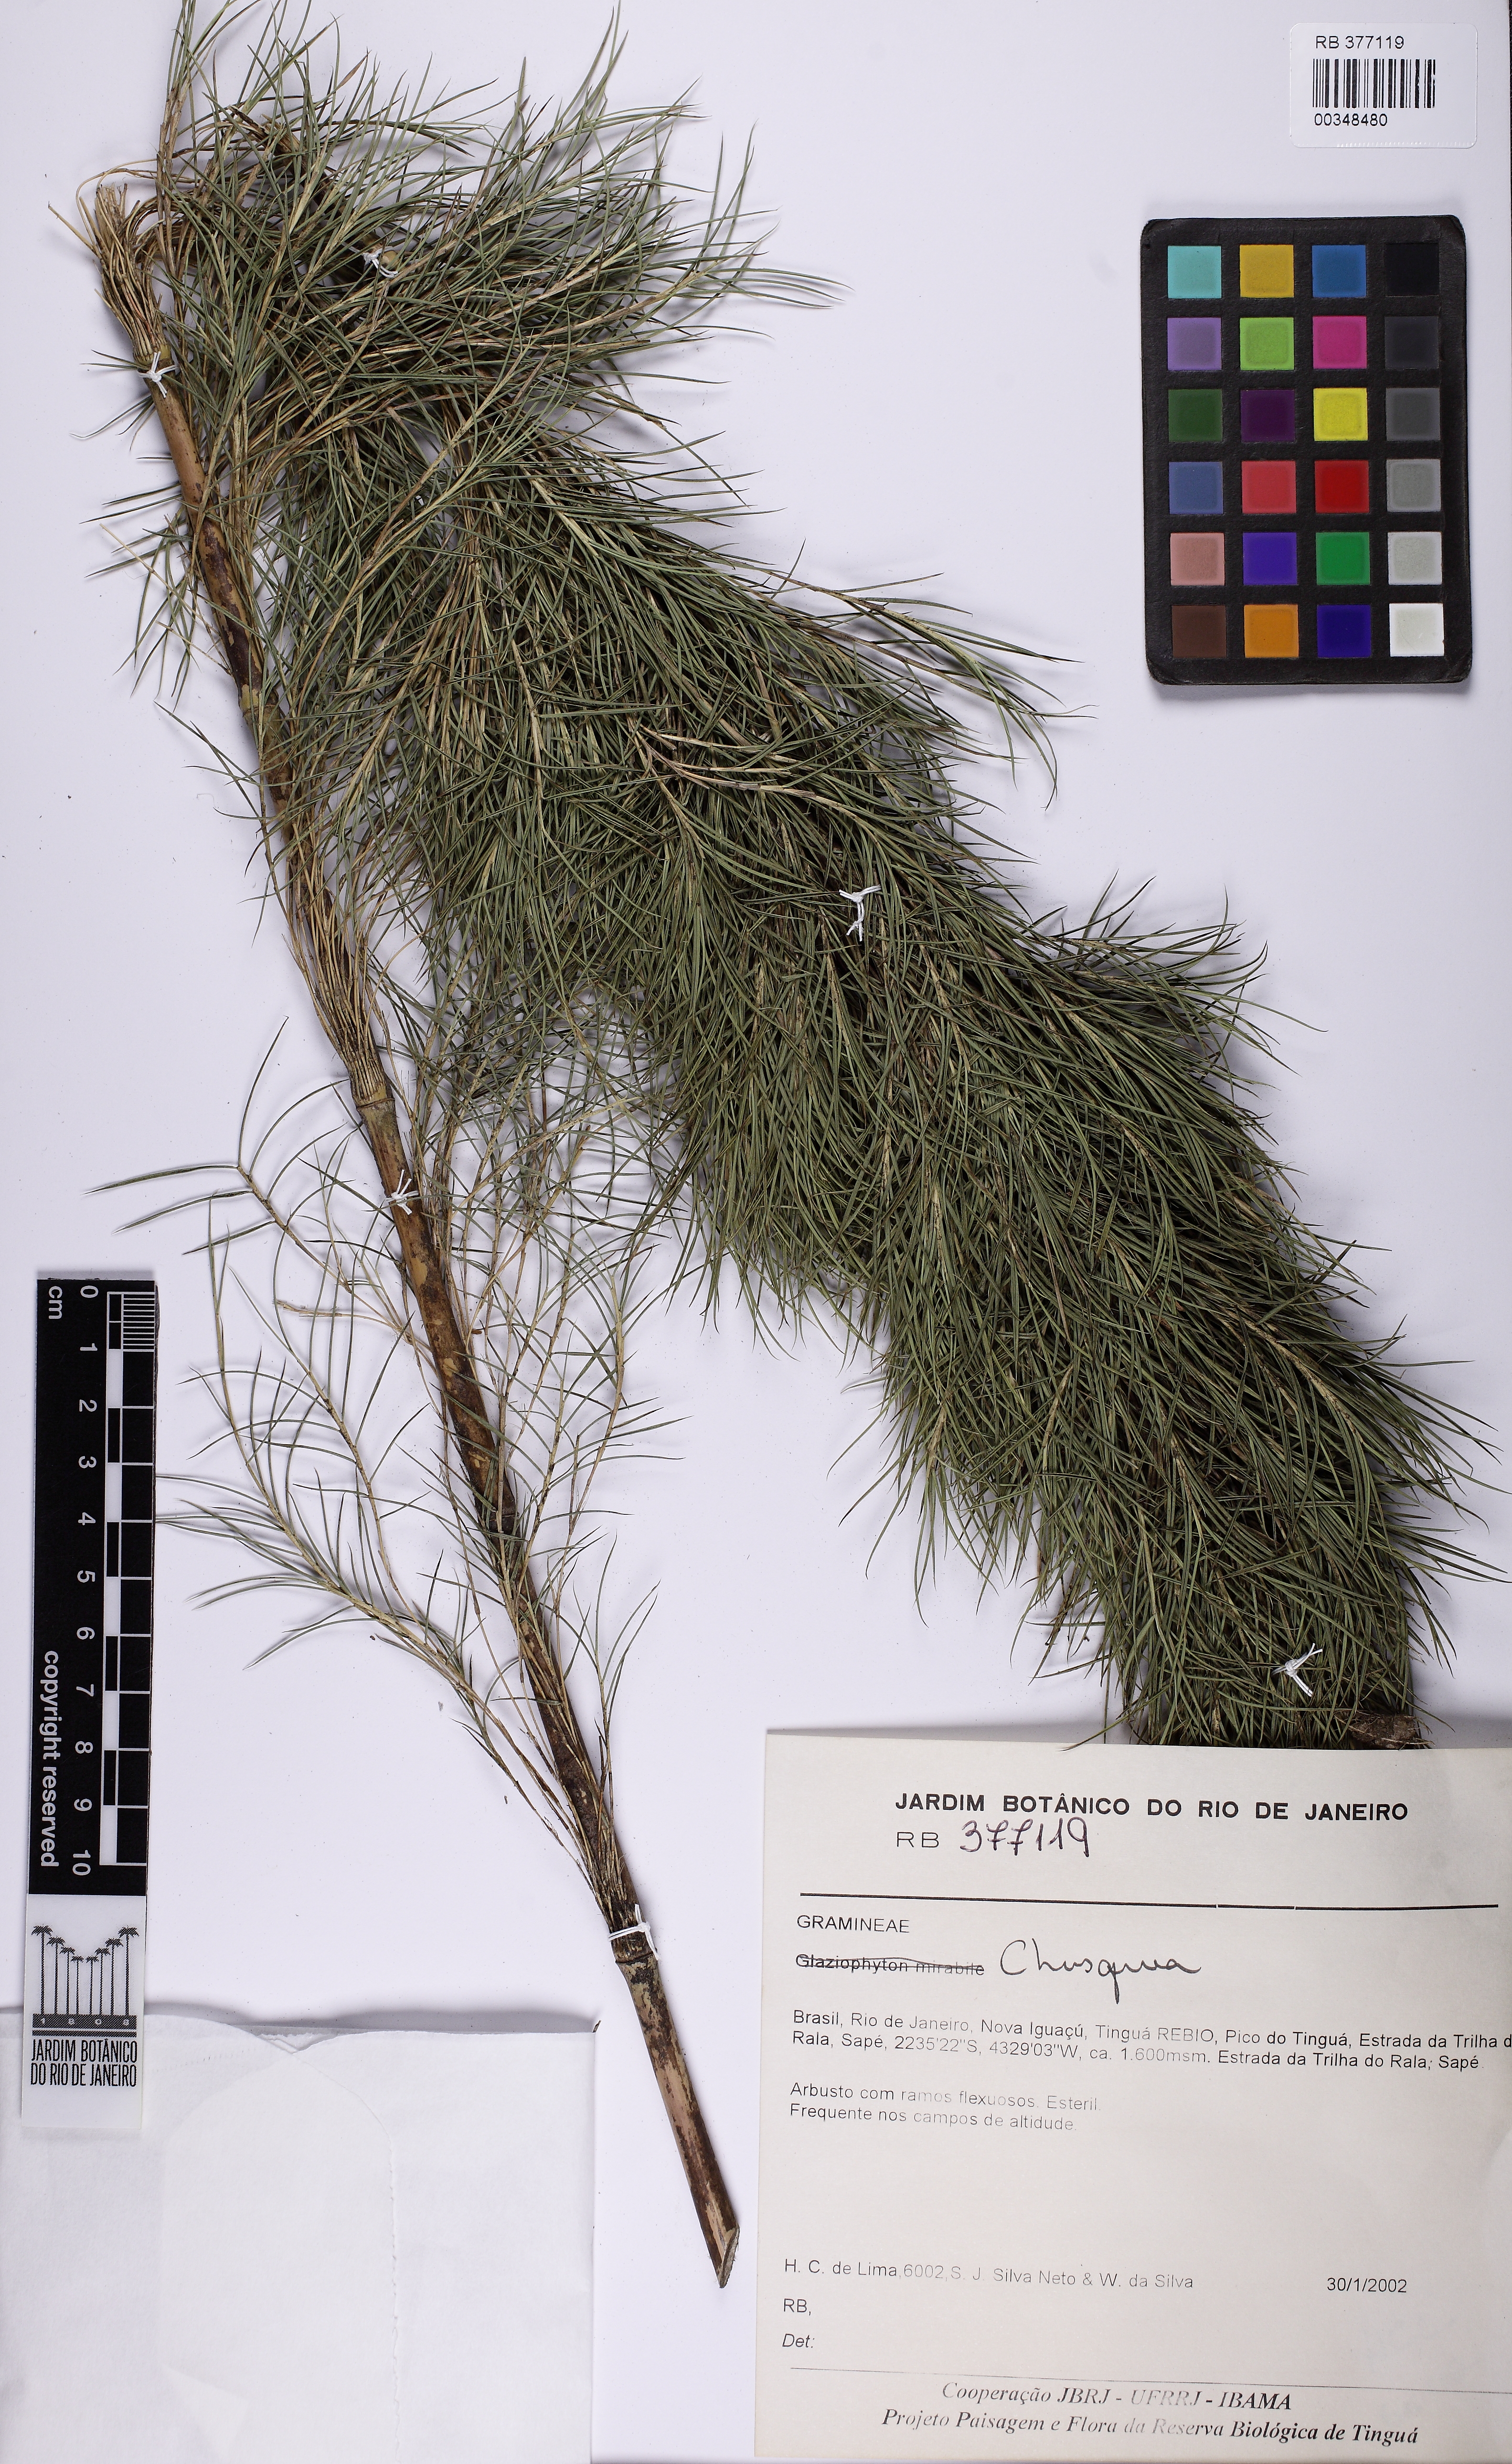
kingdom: Plantae
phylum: Tracheophyta
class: Liliopsida
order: Poales
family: Poaceae
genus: Chusquea
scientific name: Chusquea pinifolia
